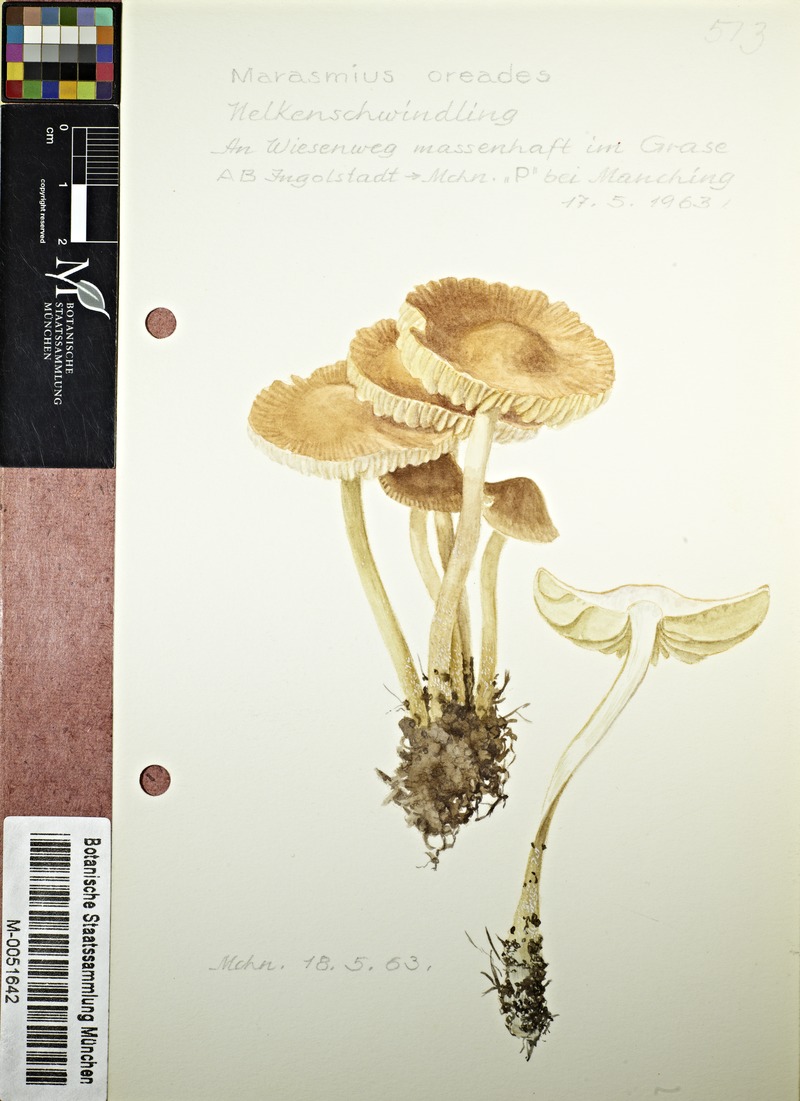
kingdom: Fungi
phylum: Basidiomycota
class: Agaricomycetes
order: Agaricales
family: Marasmiaceae
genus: Marasmius
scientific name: Marasmius oreades
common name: Fairy ring champignon
